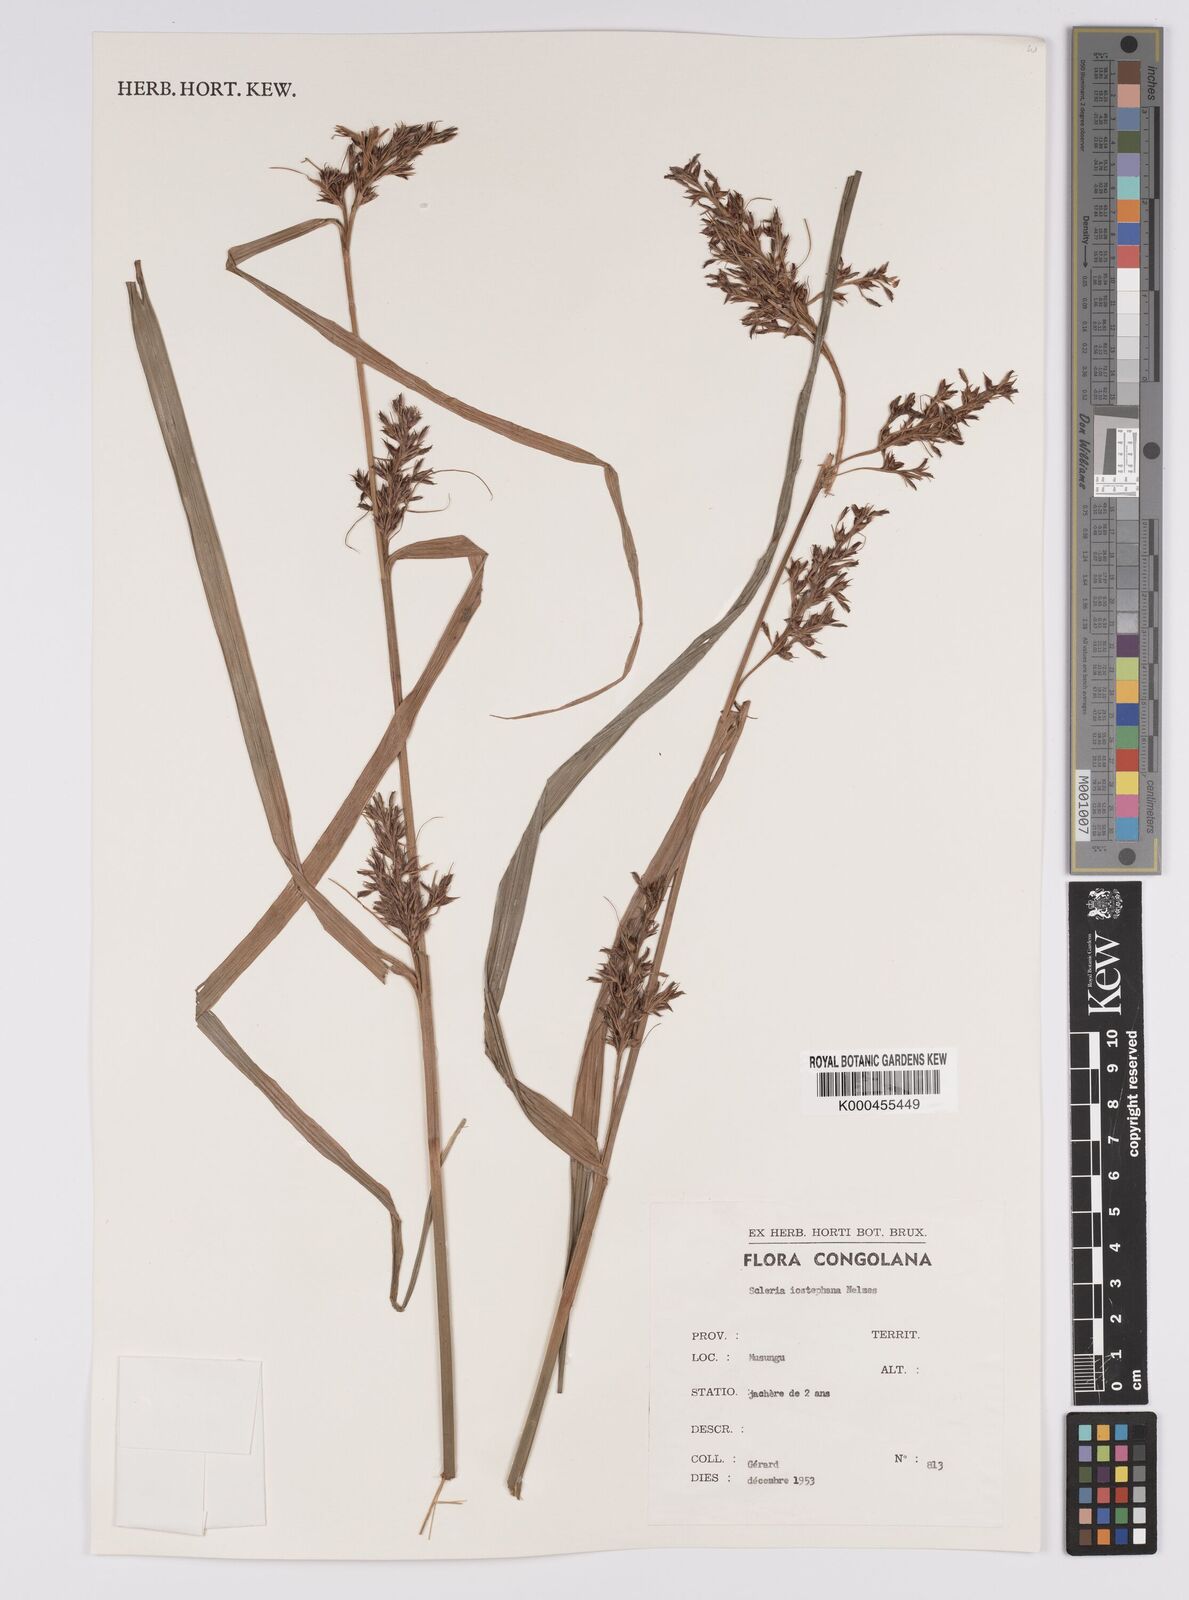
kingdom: Plantae
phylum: Tracheophyta
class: Liliopsida
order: Poales
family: Cyperaceae
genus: Scleria
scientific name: Scleria iostephana
